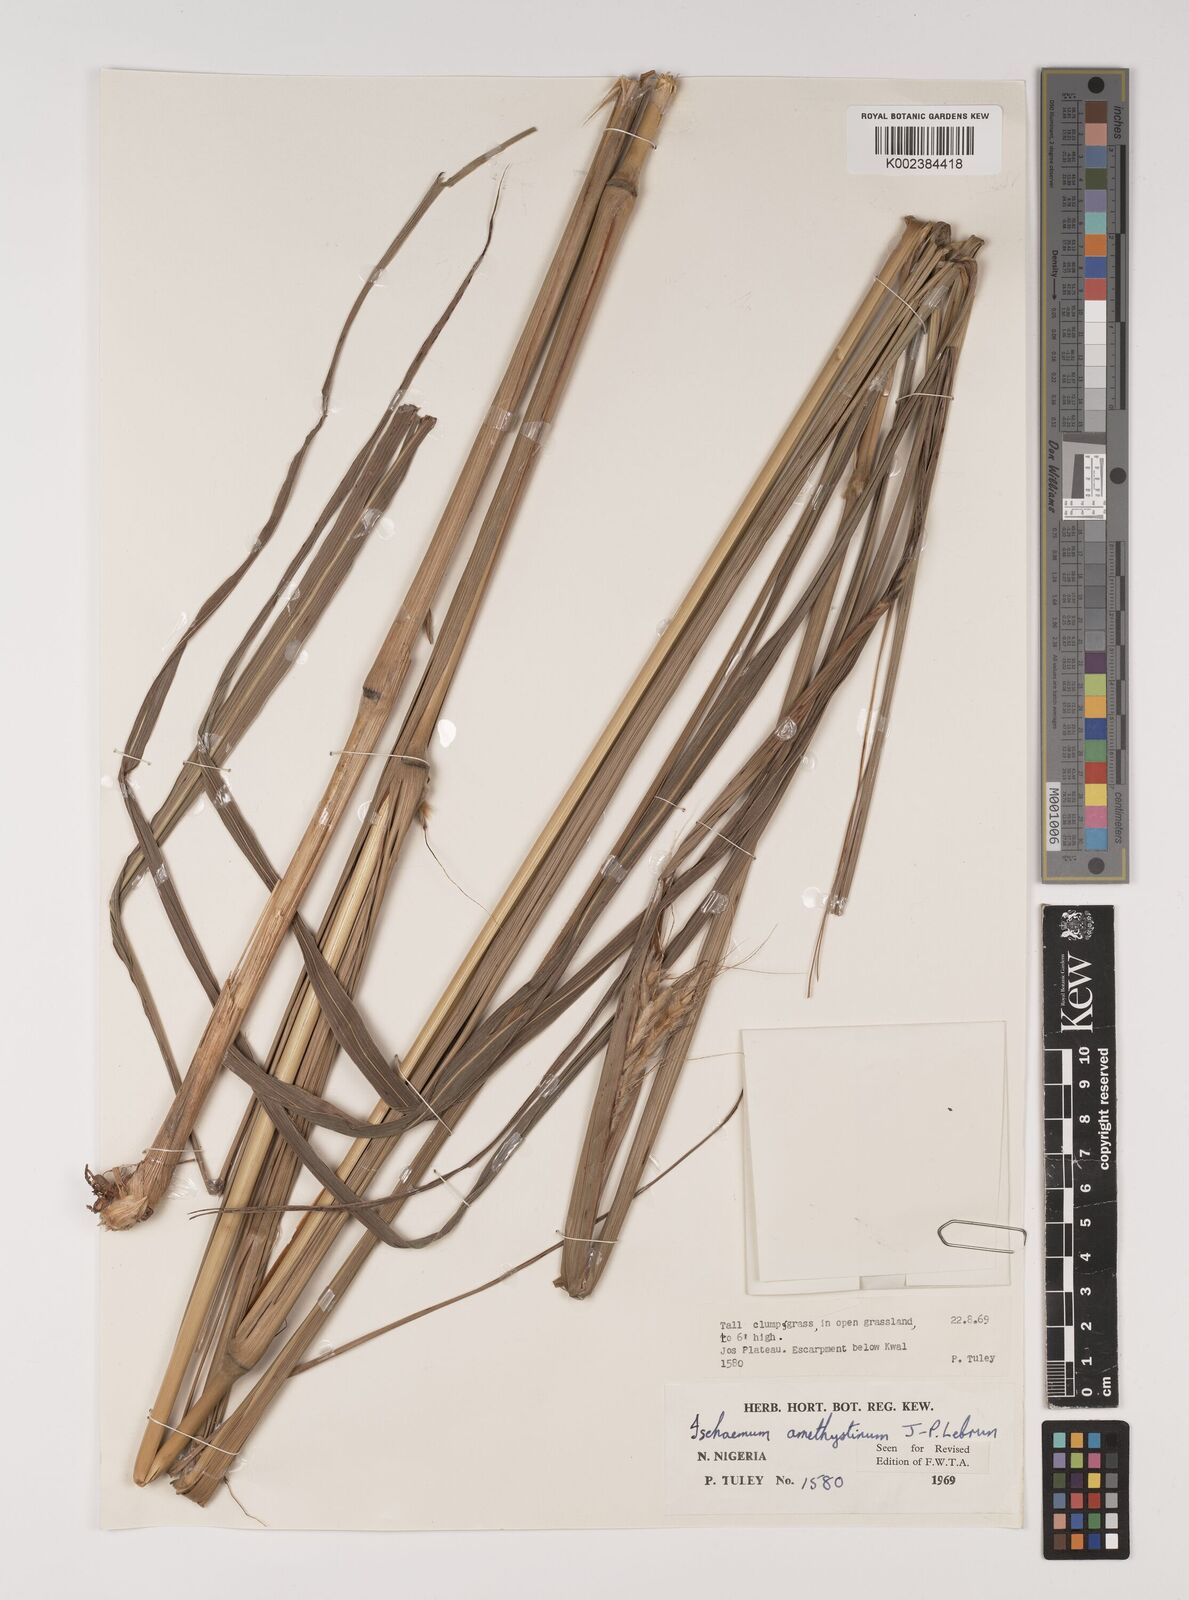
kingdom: Plantae
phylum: Tracheophyta
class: Liliopsida
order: Poales
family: Poaceae
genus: Ischaemum
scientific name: Ischaemum amethystinum
